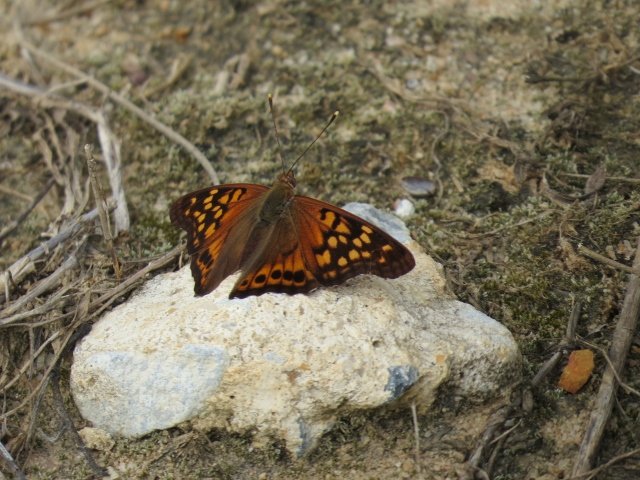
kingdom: Animalia
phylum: Arthropoda
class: Insecta
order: Lepidoptera
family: Nymphalidae
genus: Asterocampa
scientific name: Asterocampa clyton
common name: Tawny Emperor
